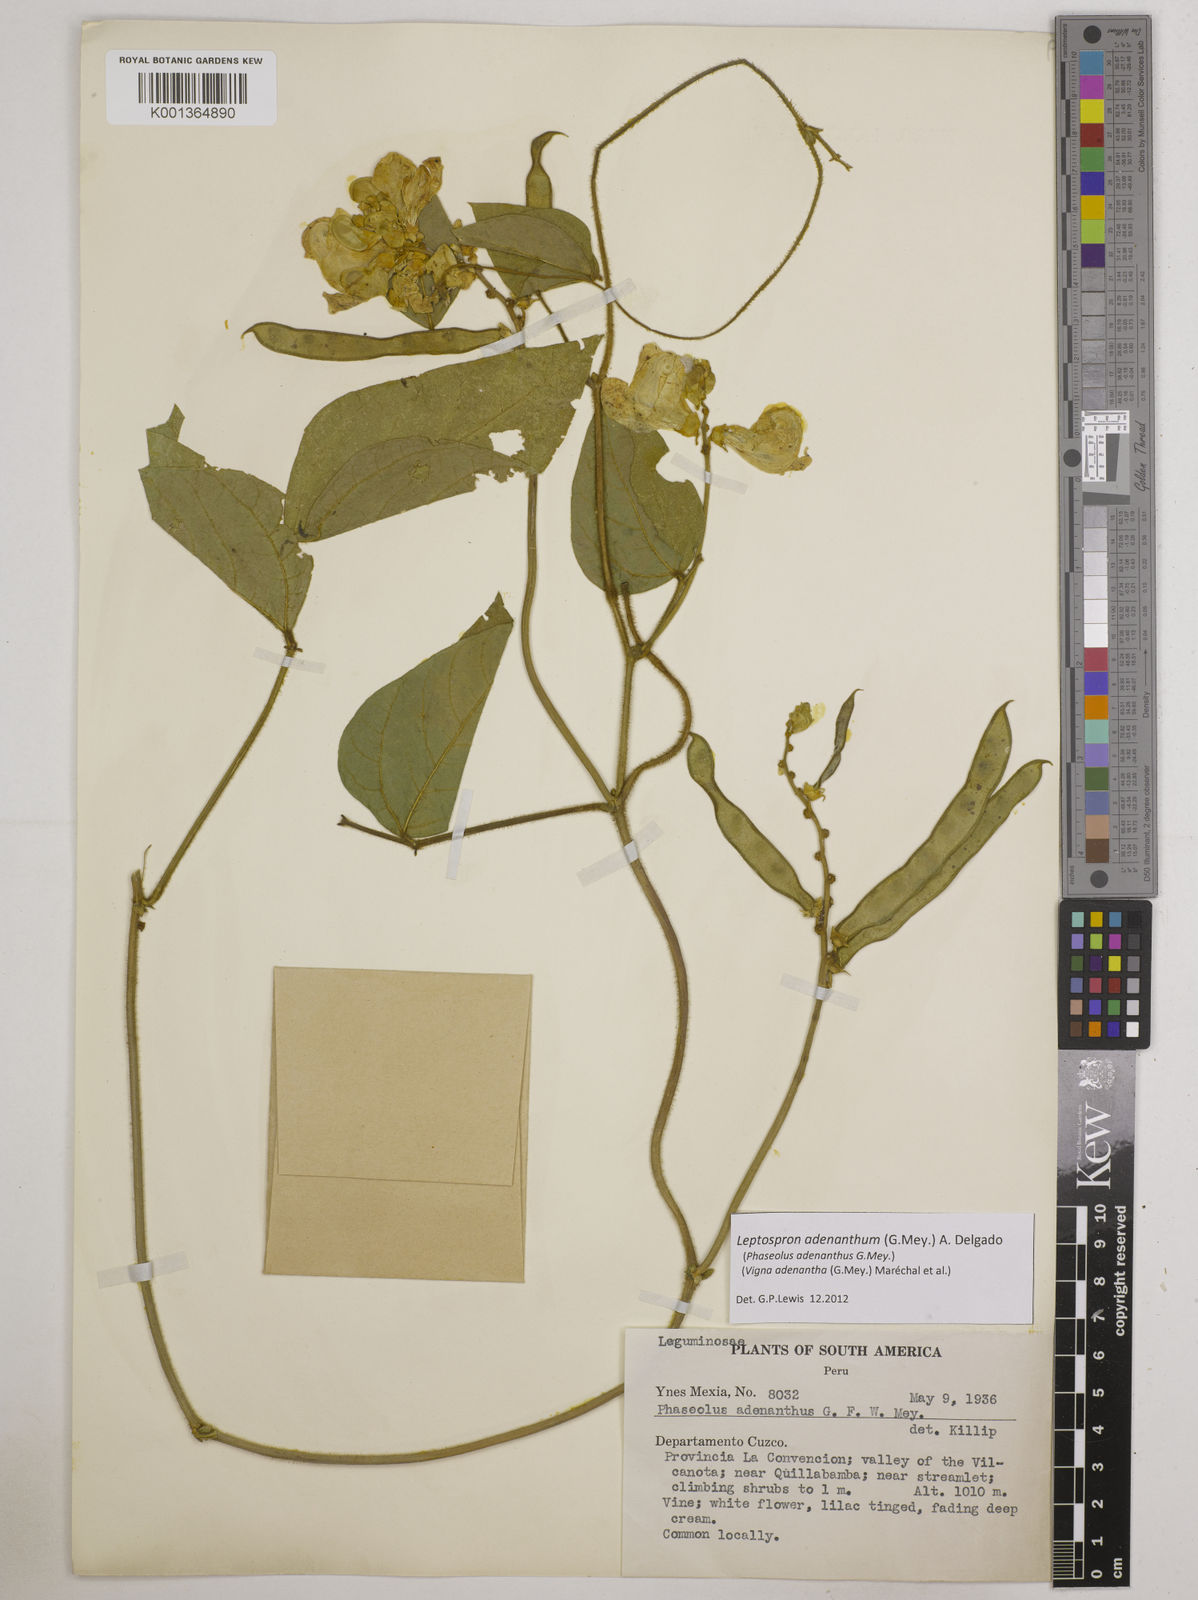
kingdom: Plantae
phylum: Tracheophyta
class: Magnoliopsida
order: Fabales
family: Fabaceae
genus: Leptospron
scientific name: Leptospron adenanthum
